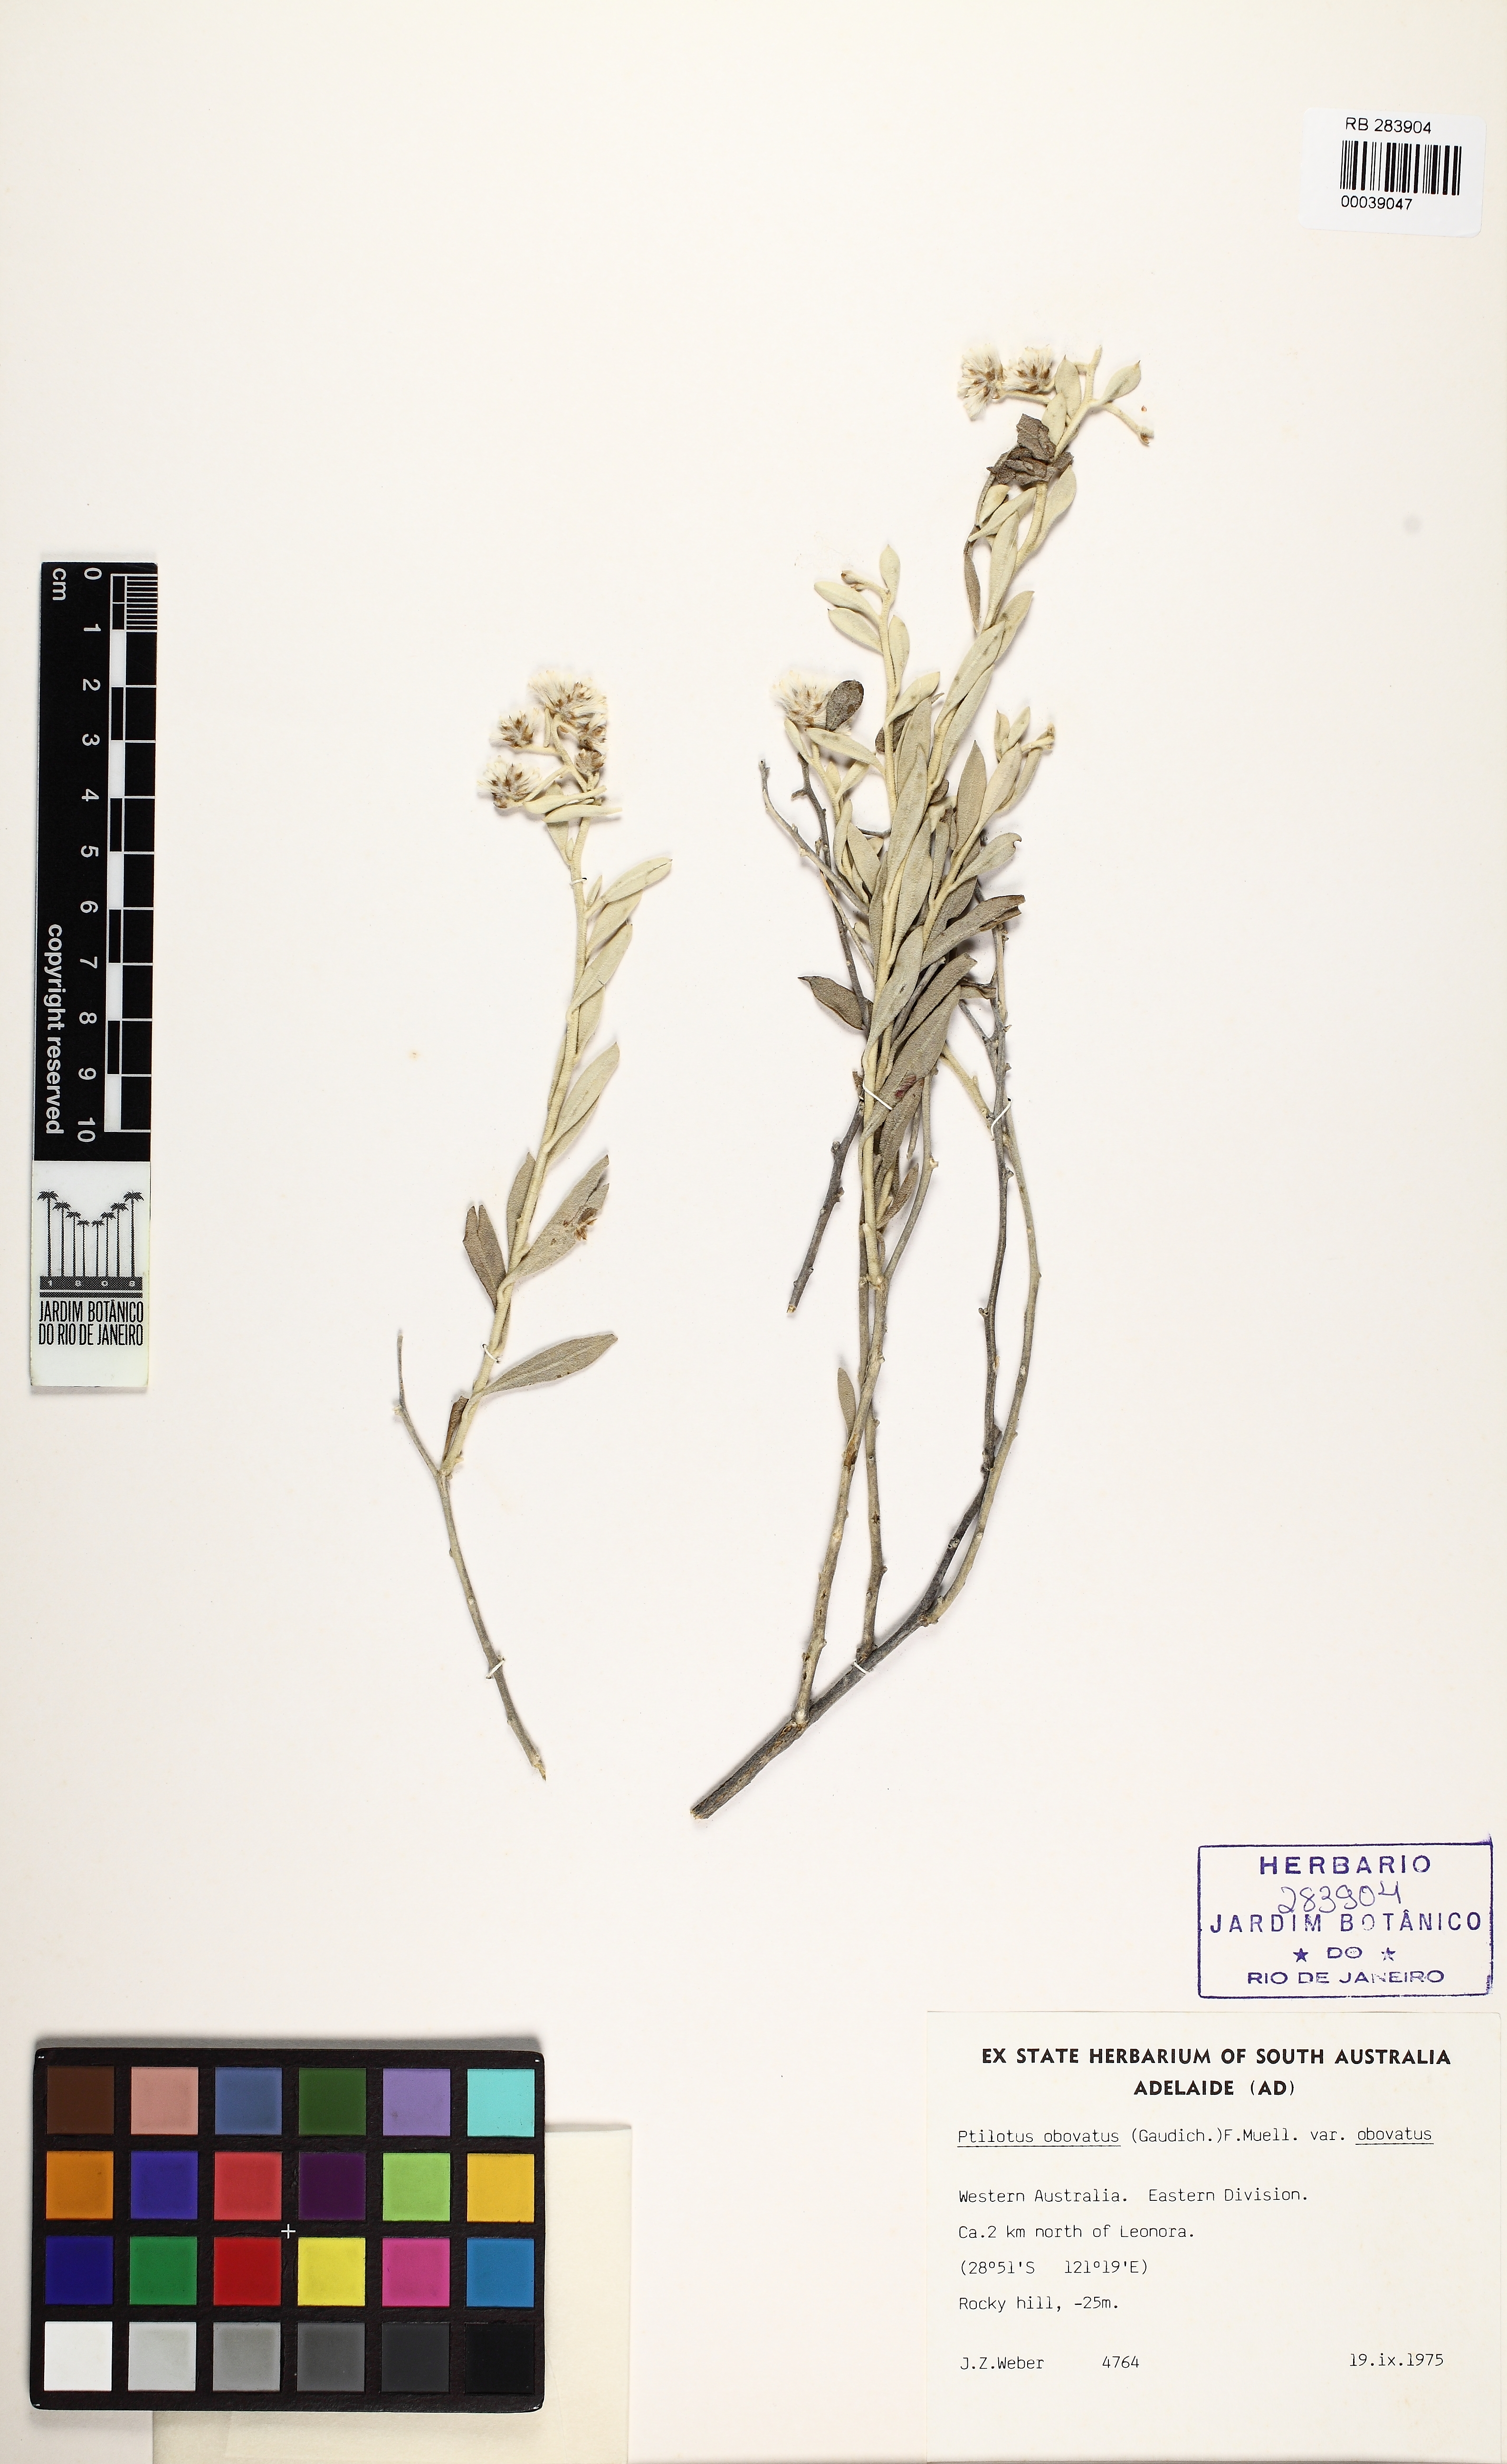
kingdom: Plantae
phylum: Tracheophyta
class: Magnoliopsida
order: Caryophyllales
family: Amaranthaceae
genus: Ptilotus
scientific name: Ptilotus obovatus
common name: Cottonbush
